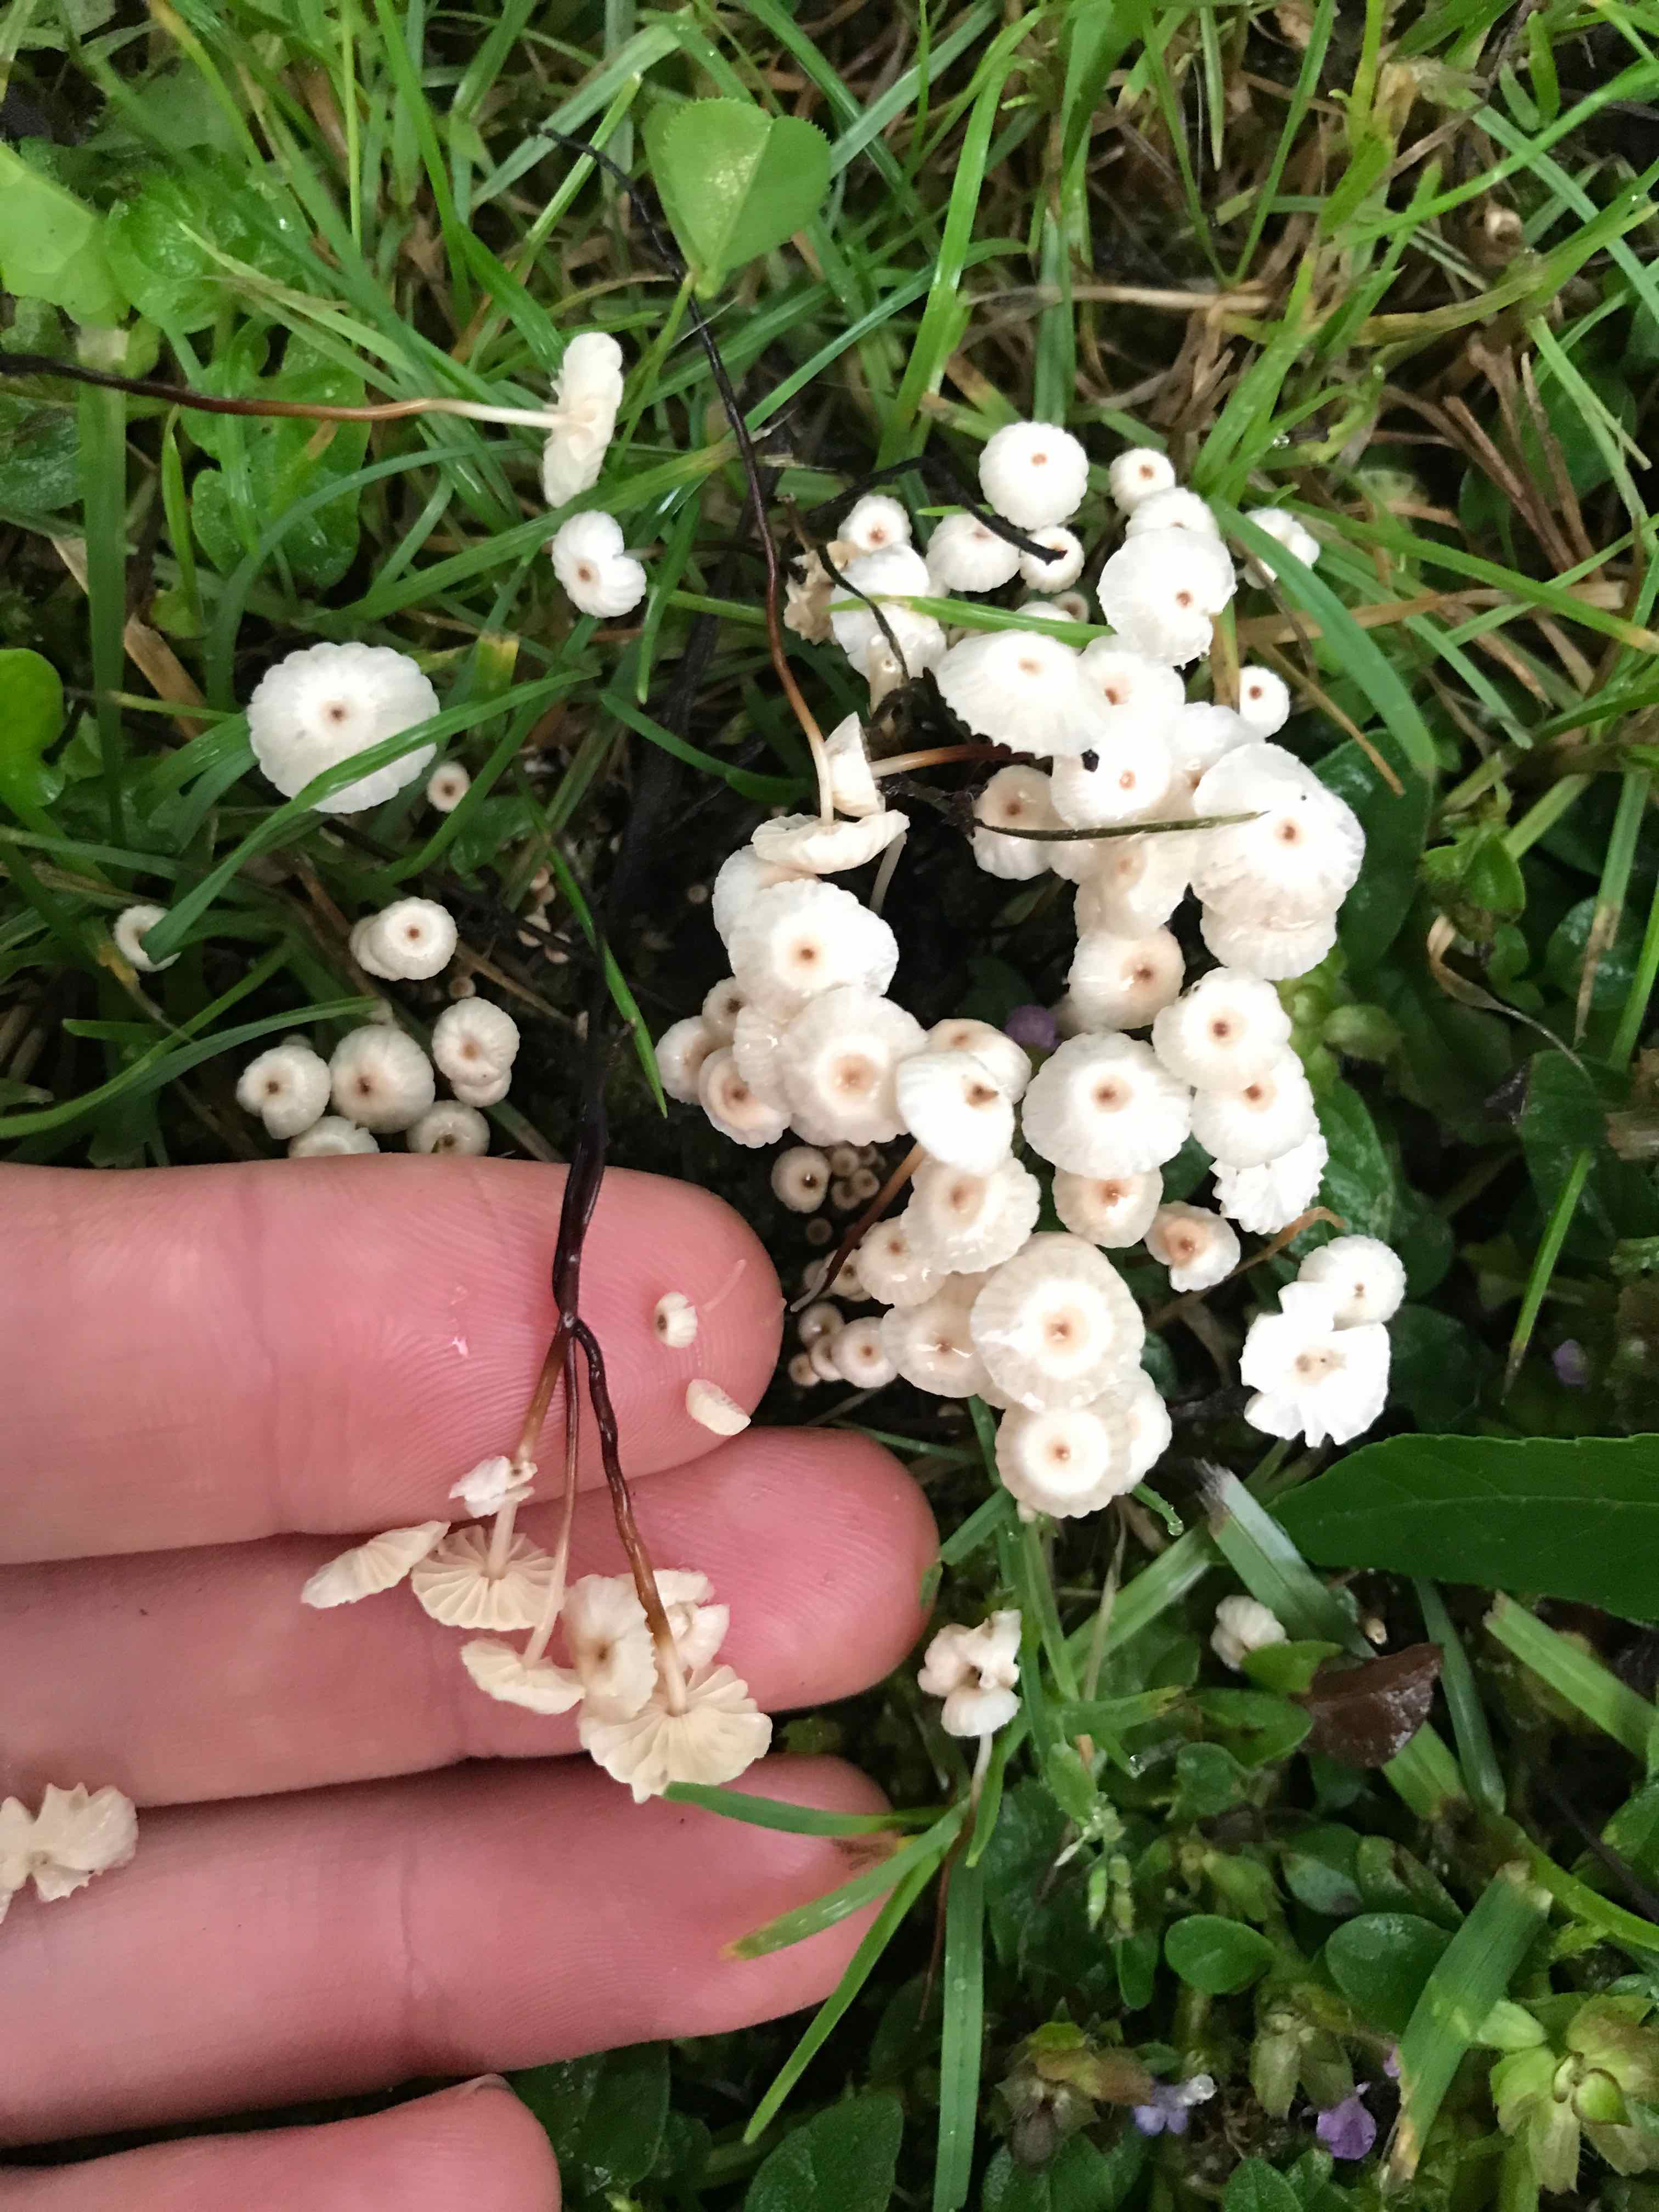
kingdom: Fungi
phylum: Basidiomycota
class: Agaricomycetes
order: Agaricales
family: Marasmiaceae
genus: Marasmius
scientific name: Marasmius rotula
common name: hjul-bruskhat
